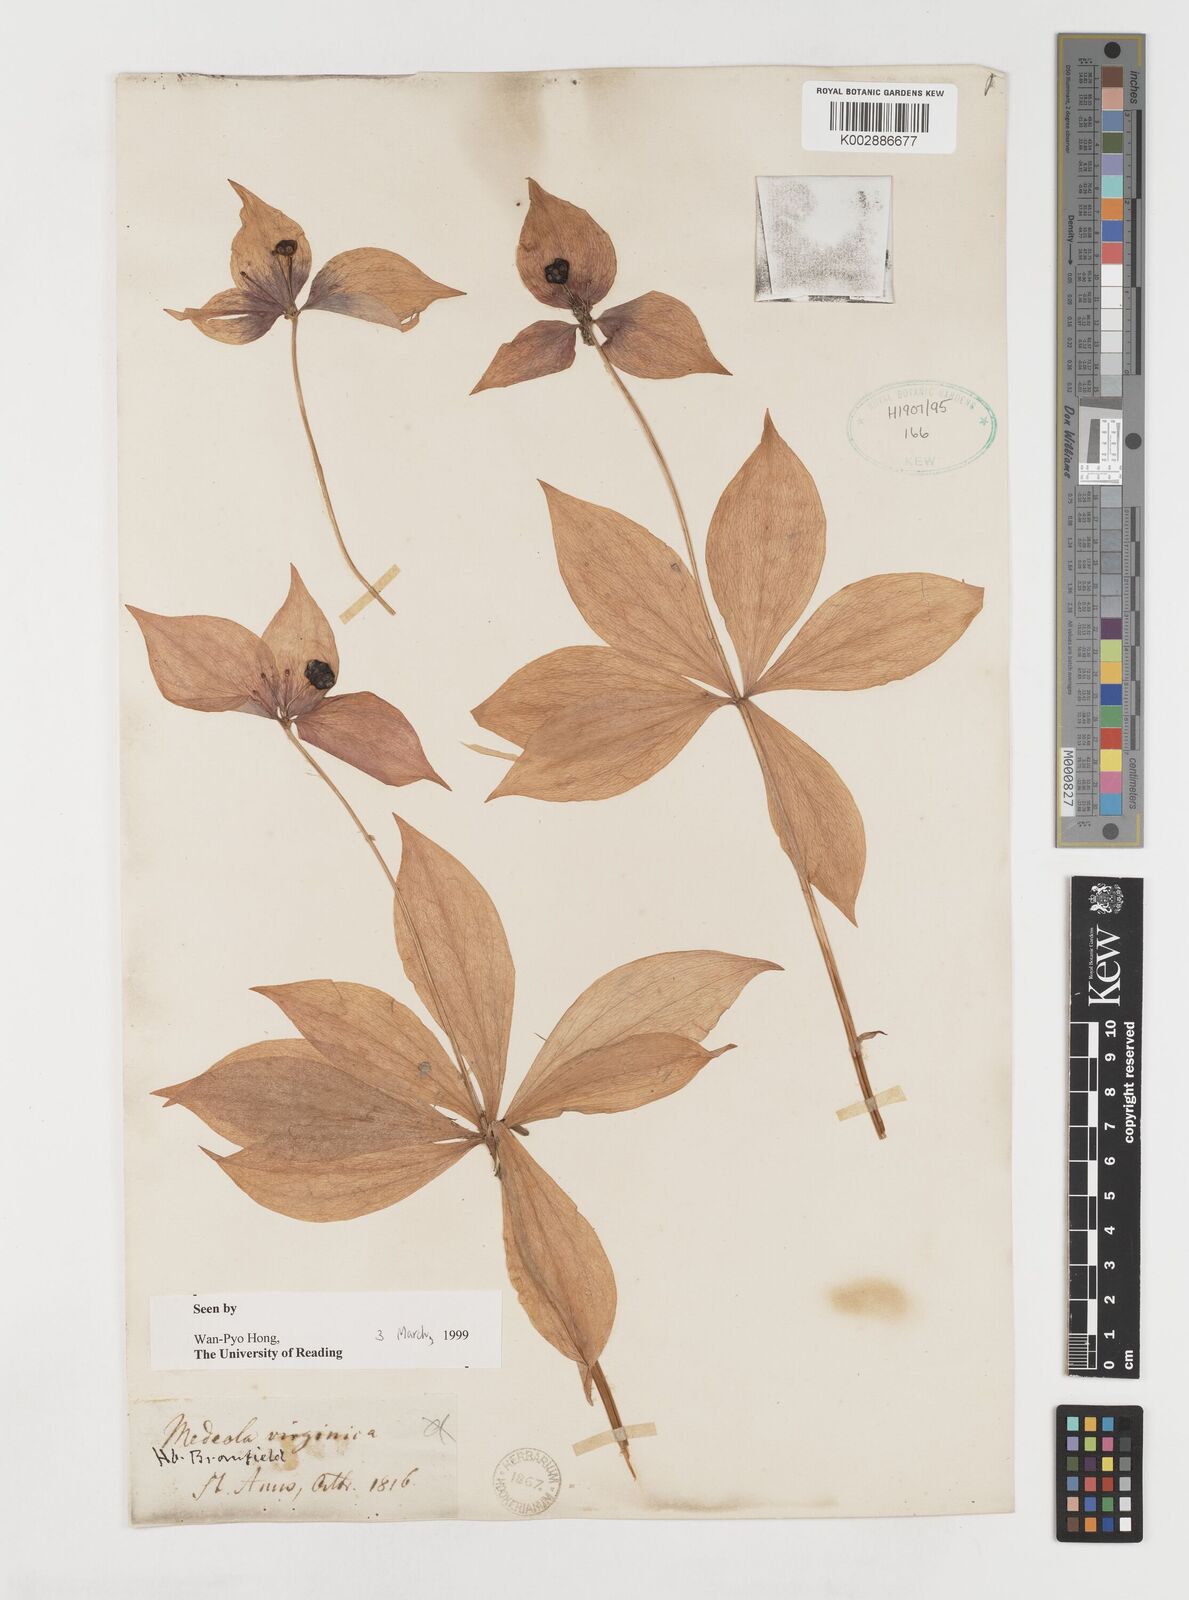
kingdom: Plantae
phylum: Tracheophyta
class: Liliopsida
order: Liliales
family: Liliaceae
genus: Medeola
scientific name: Medeola virginiana
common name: Indian cucumber-root
